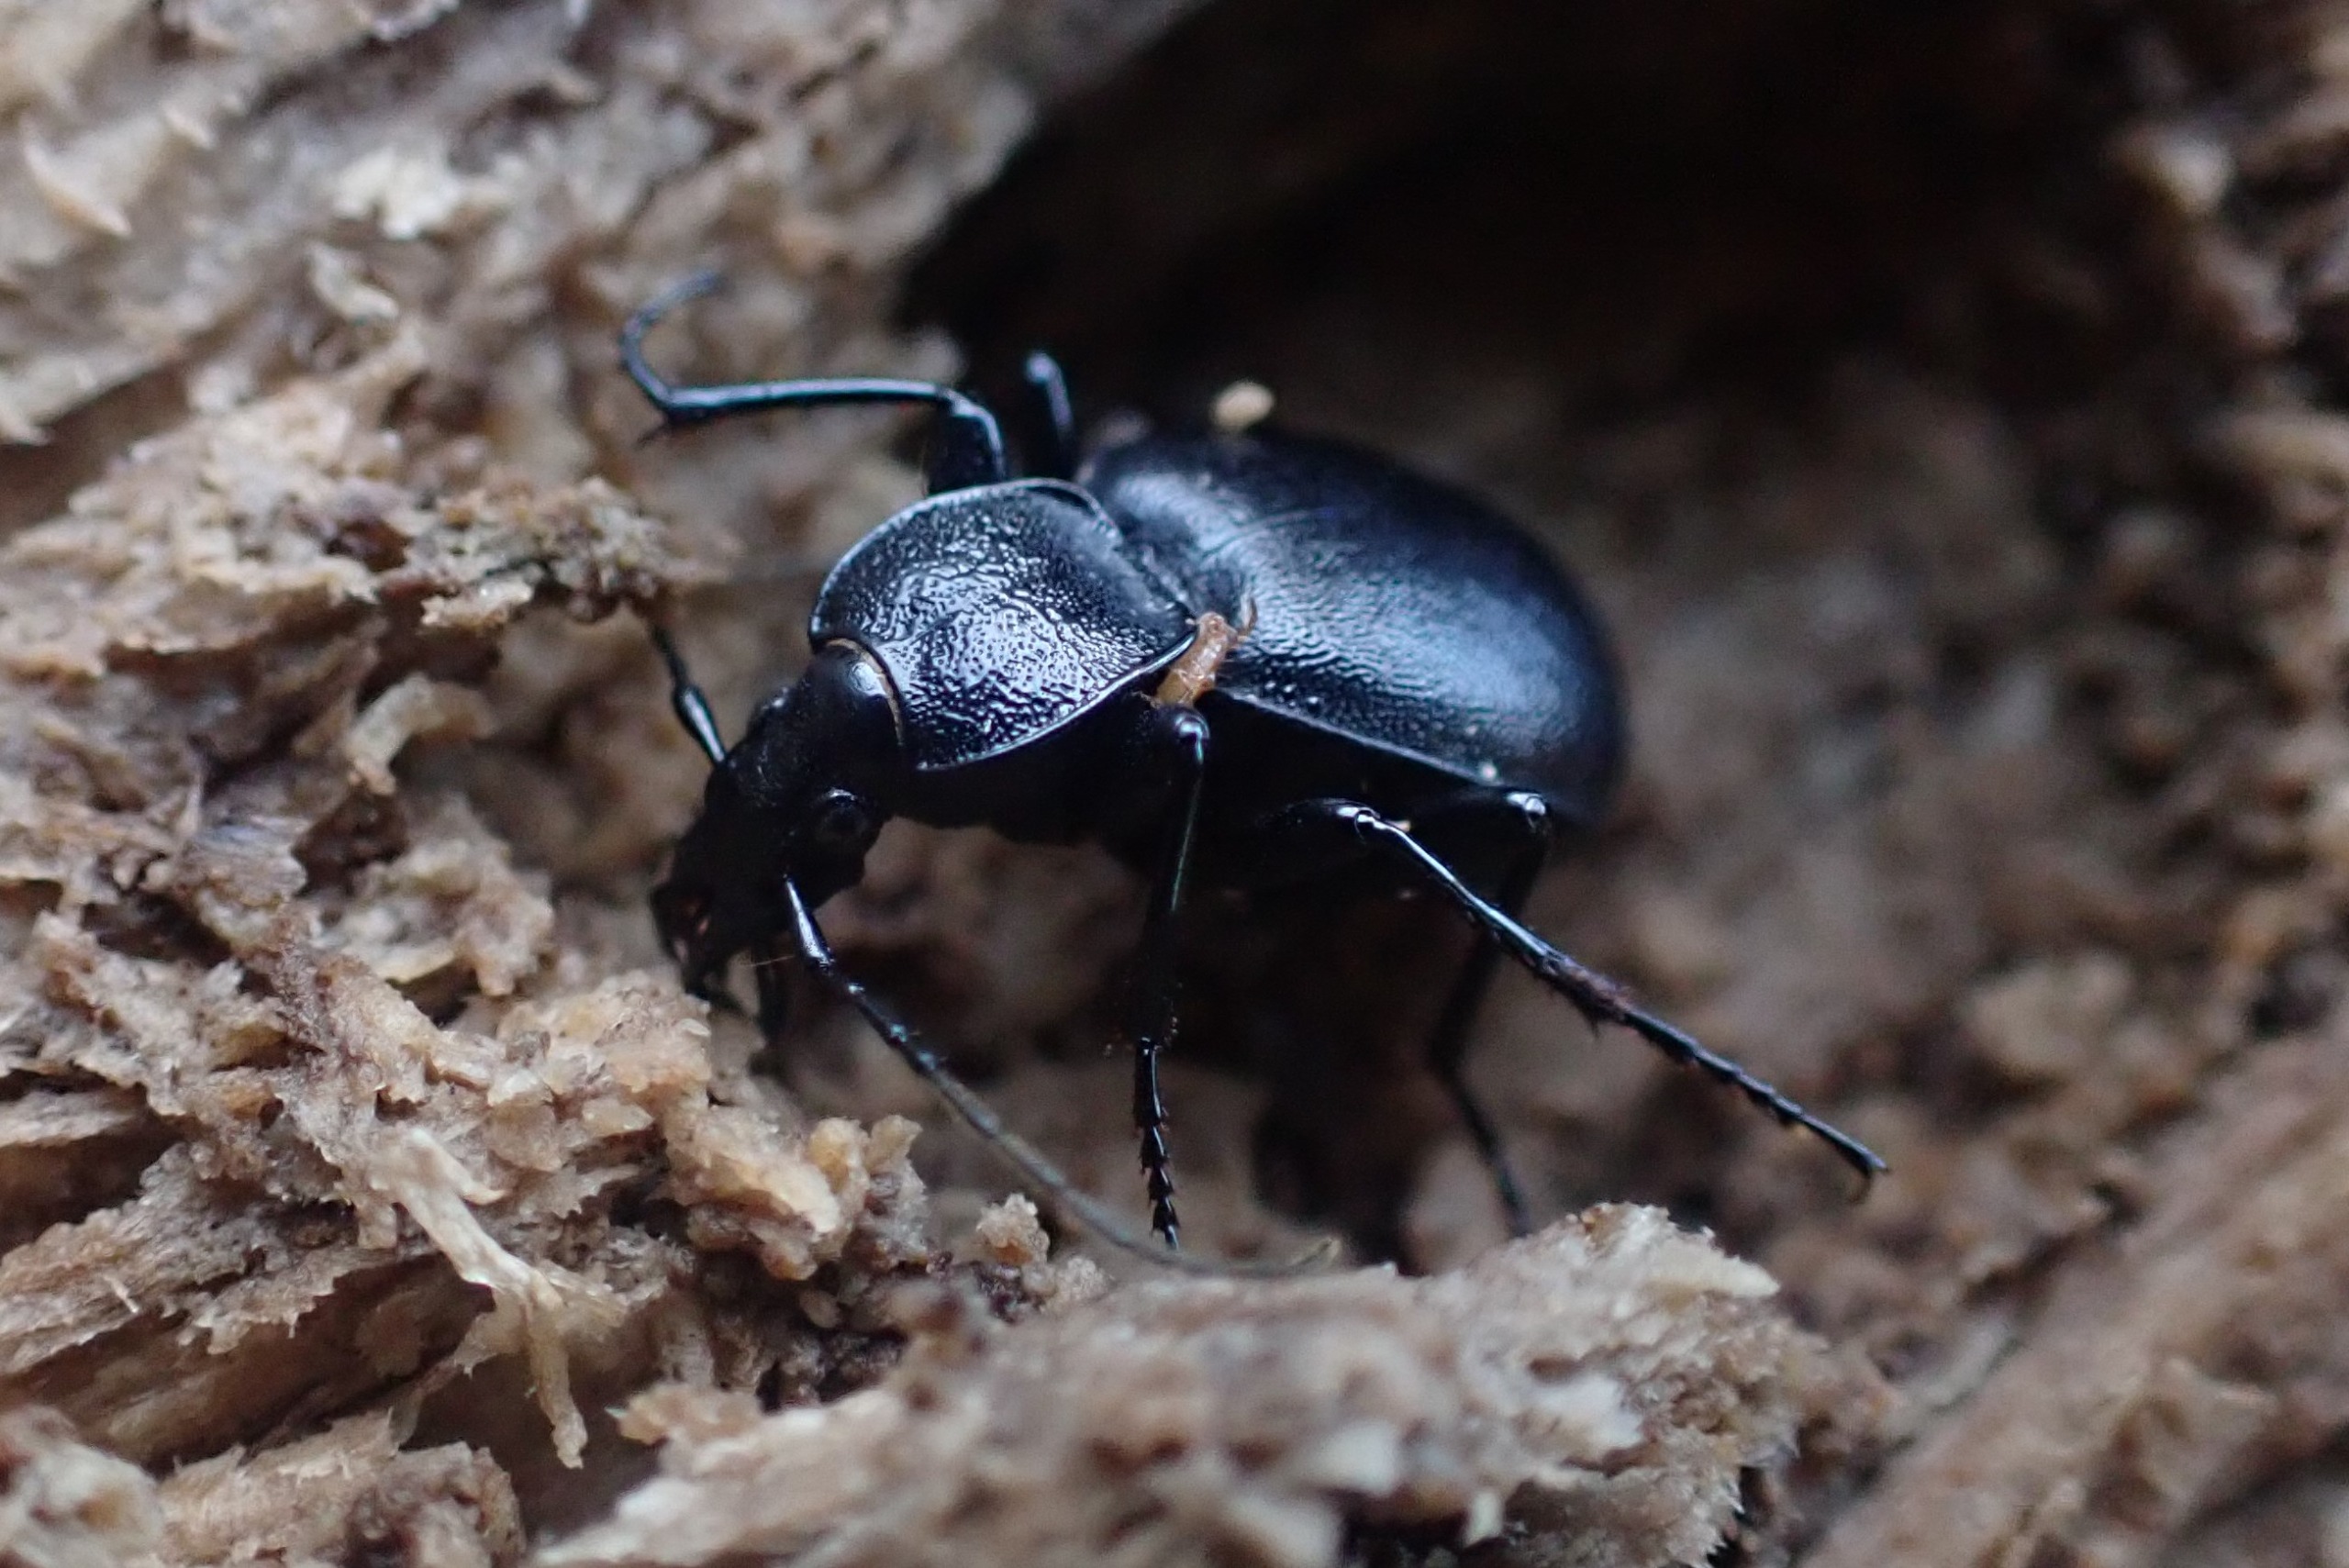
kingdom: Animalia
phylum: Arthropoda
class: Insecta
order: Coleoptera
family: Carabidae
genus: Cychrus
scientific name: Cychrus caraboides
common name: Sneglerøver
